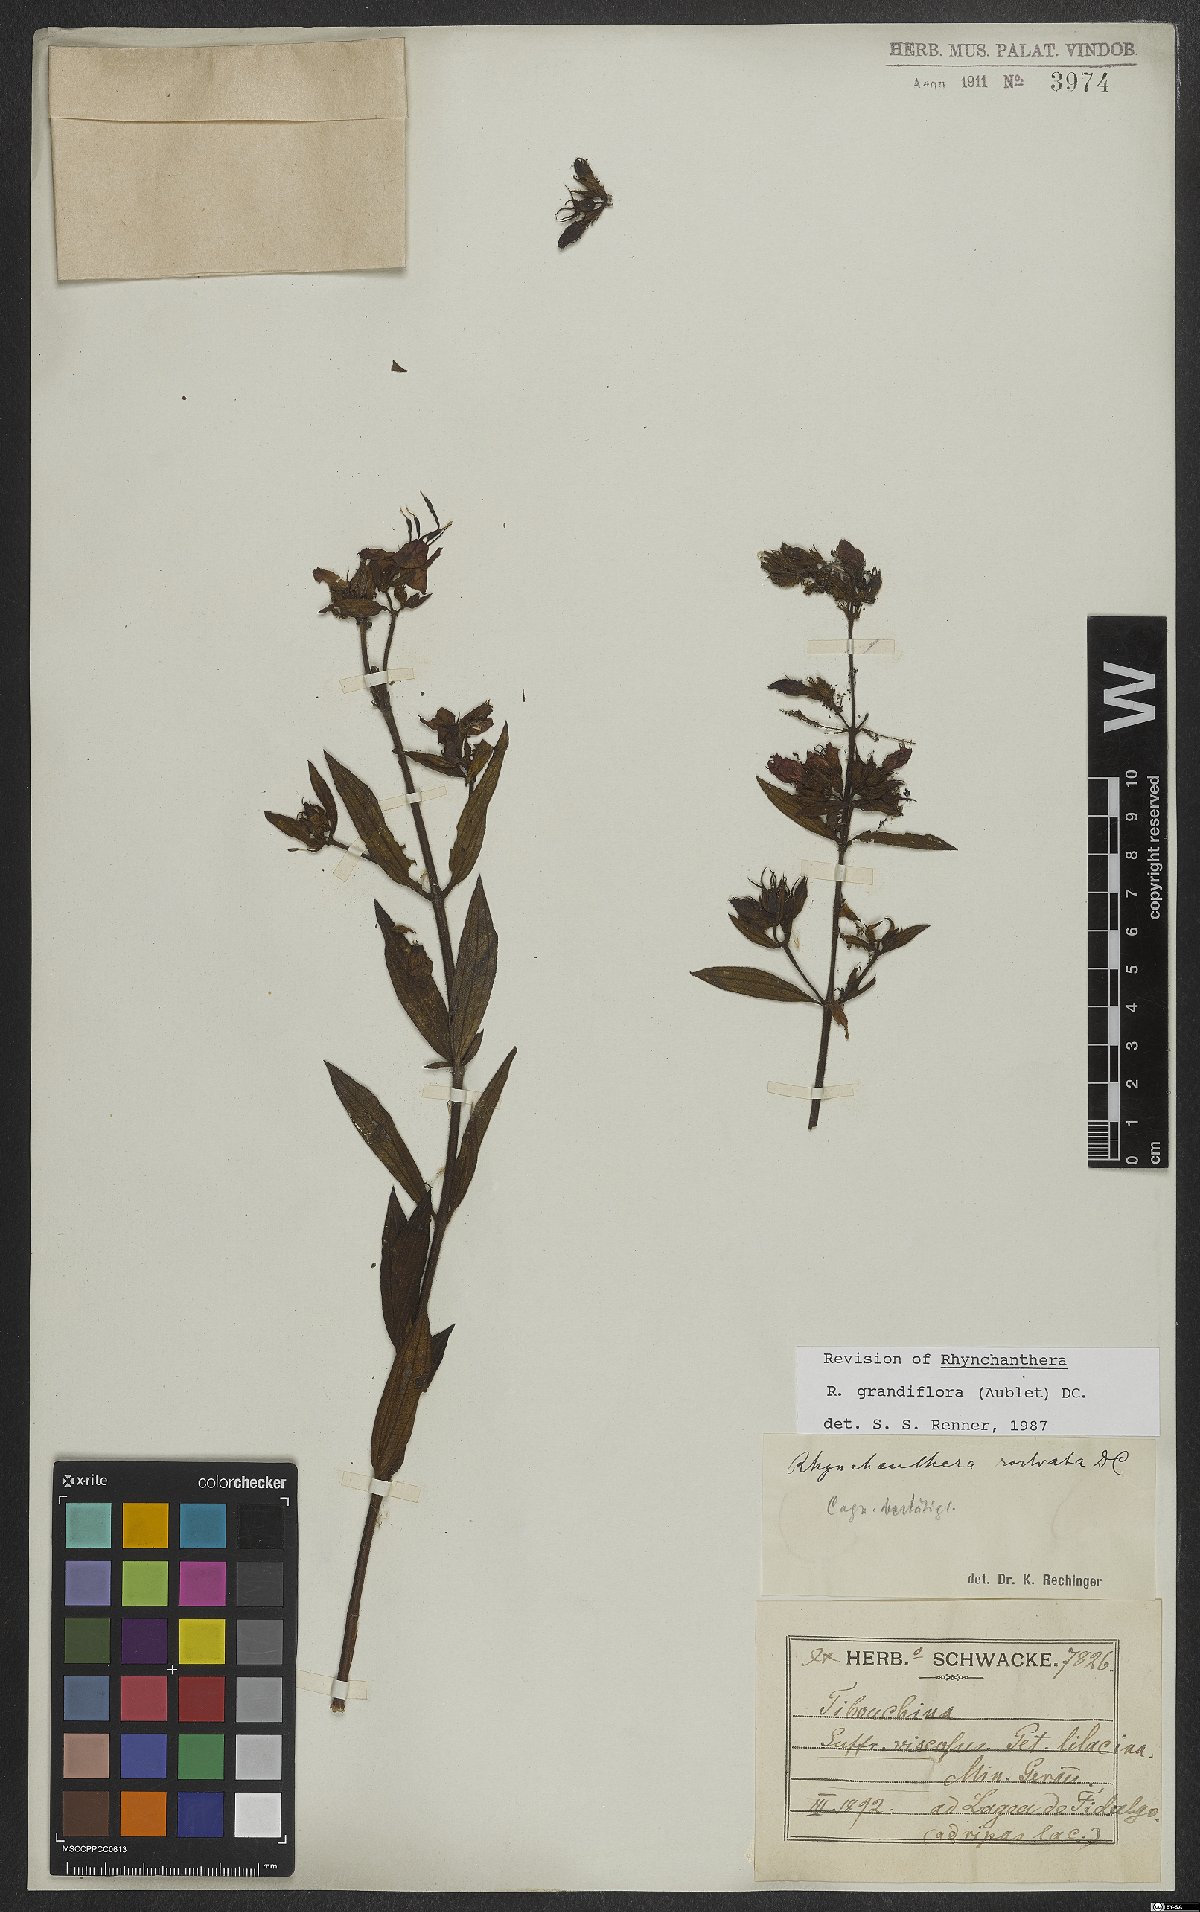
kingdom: Plantae
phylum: Tracheophyta
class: Magnoliopsida
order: Myrtales
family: Melastomataceae
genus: Rhynchanthera
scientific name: Rhynchanthera grandiflora
